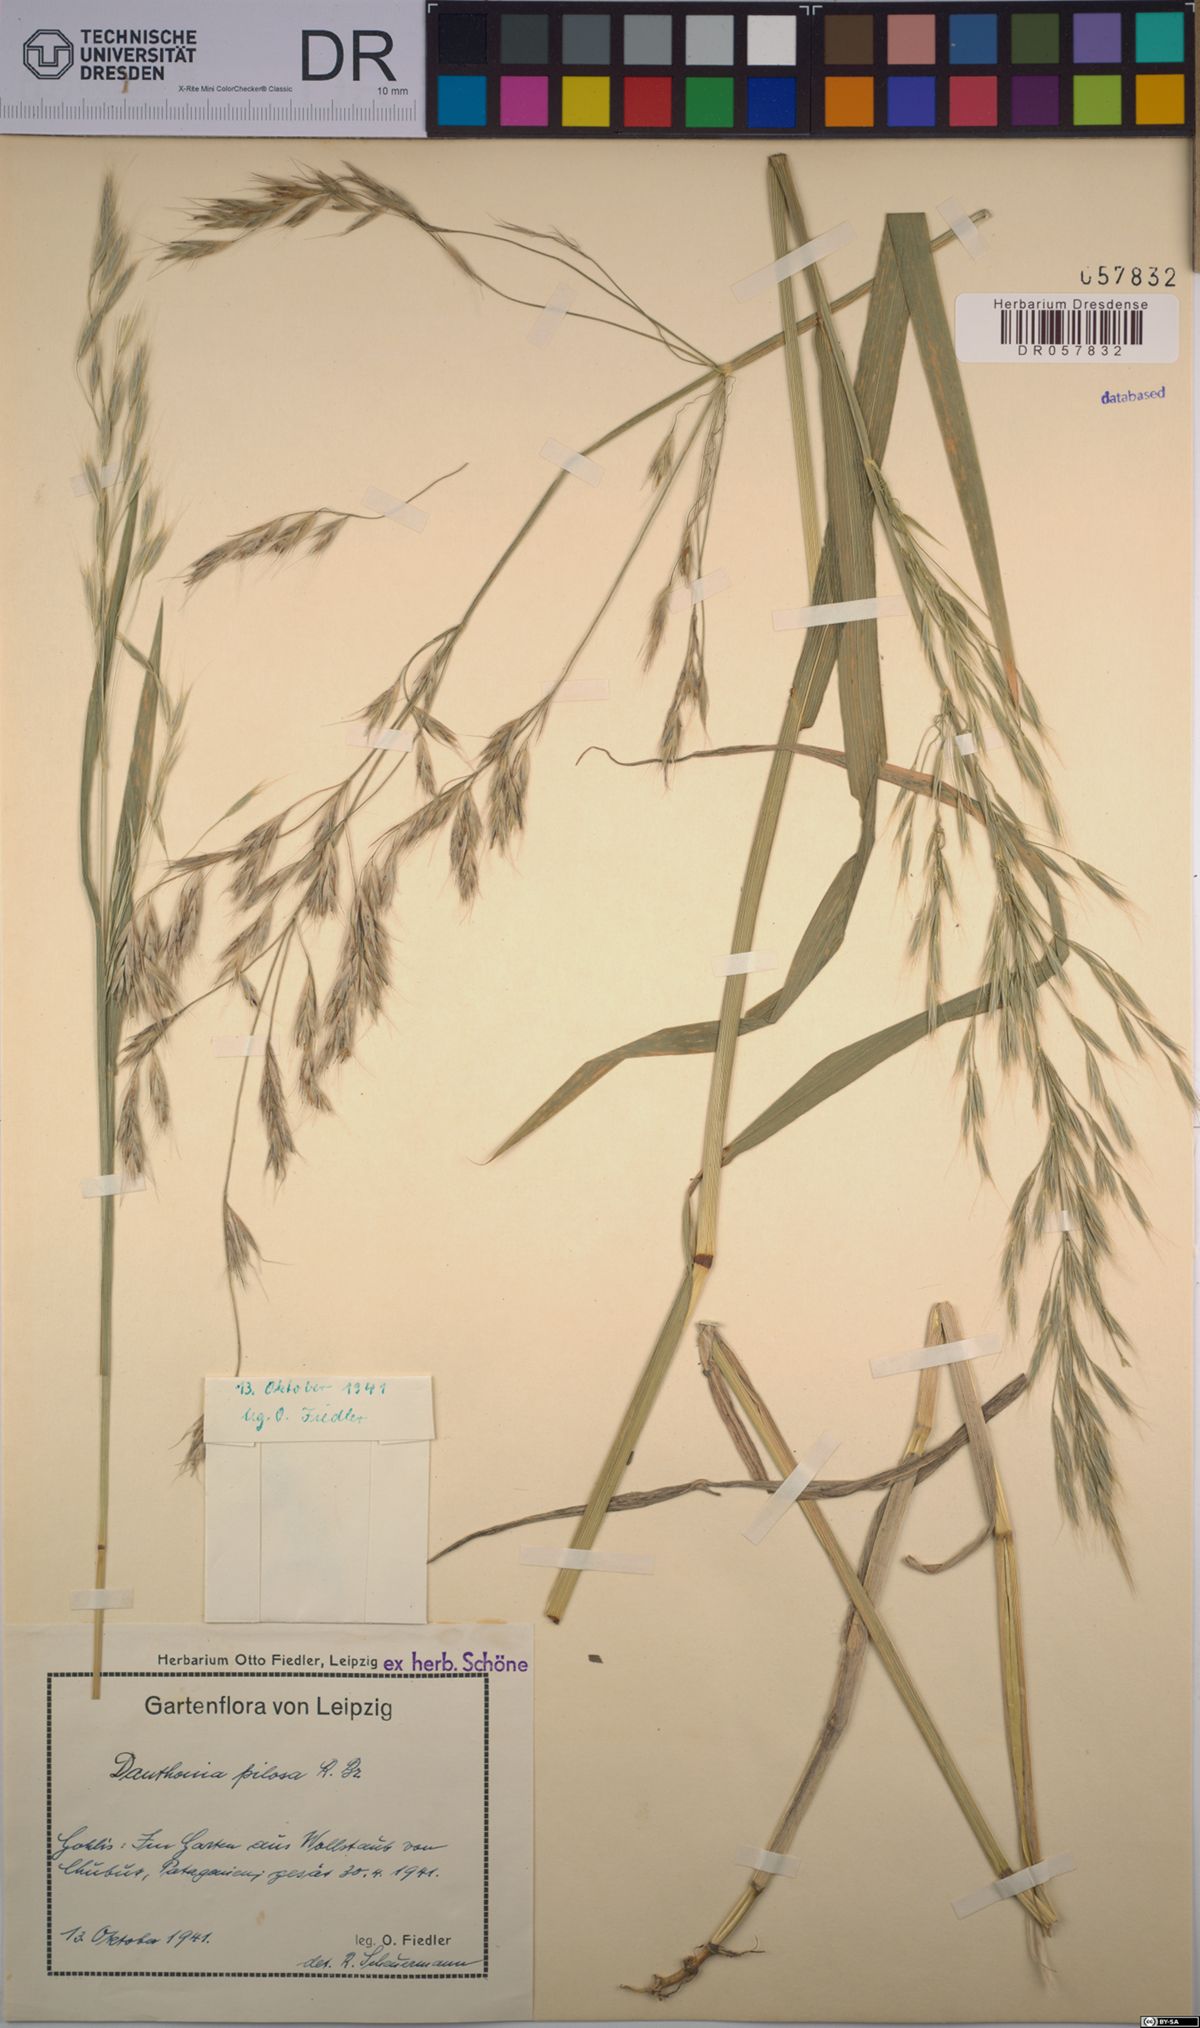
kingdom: Plantae
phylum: Tracheophyta
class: Liliopsida
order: Poales
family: Poaceae
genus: Rytidosperma
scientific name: Rytidosperma pilosum
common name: Hairy wallaby grass
